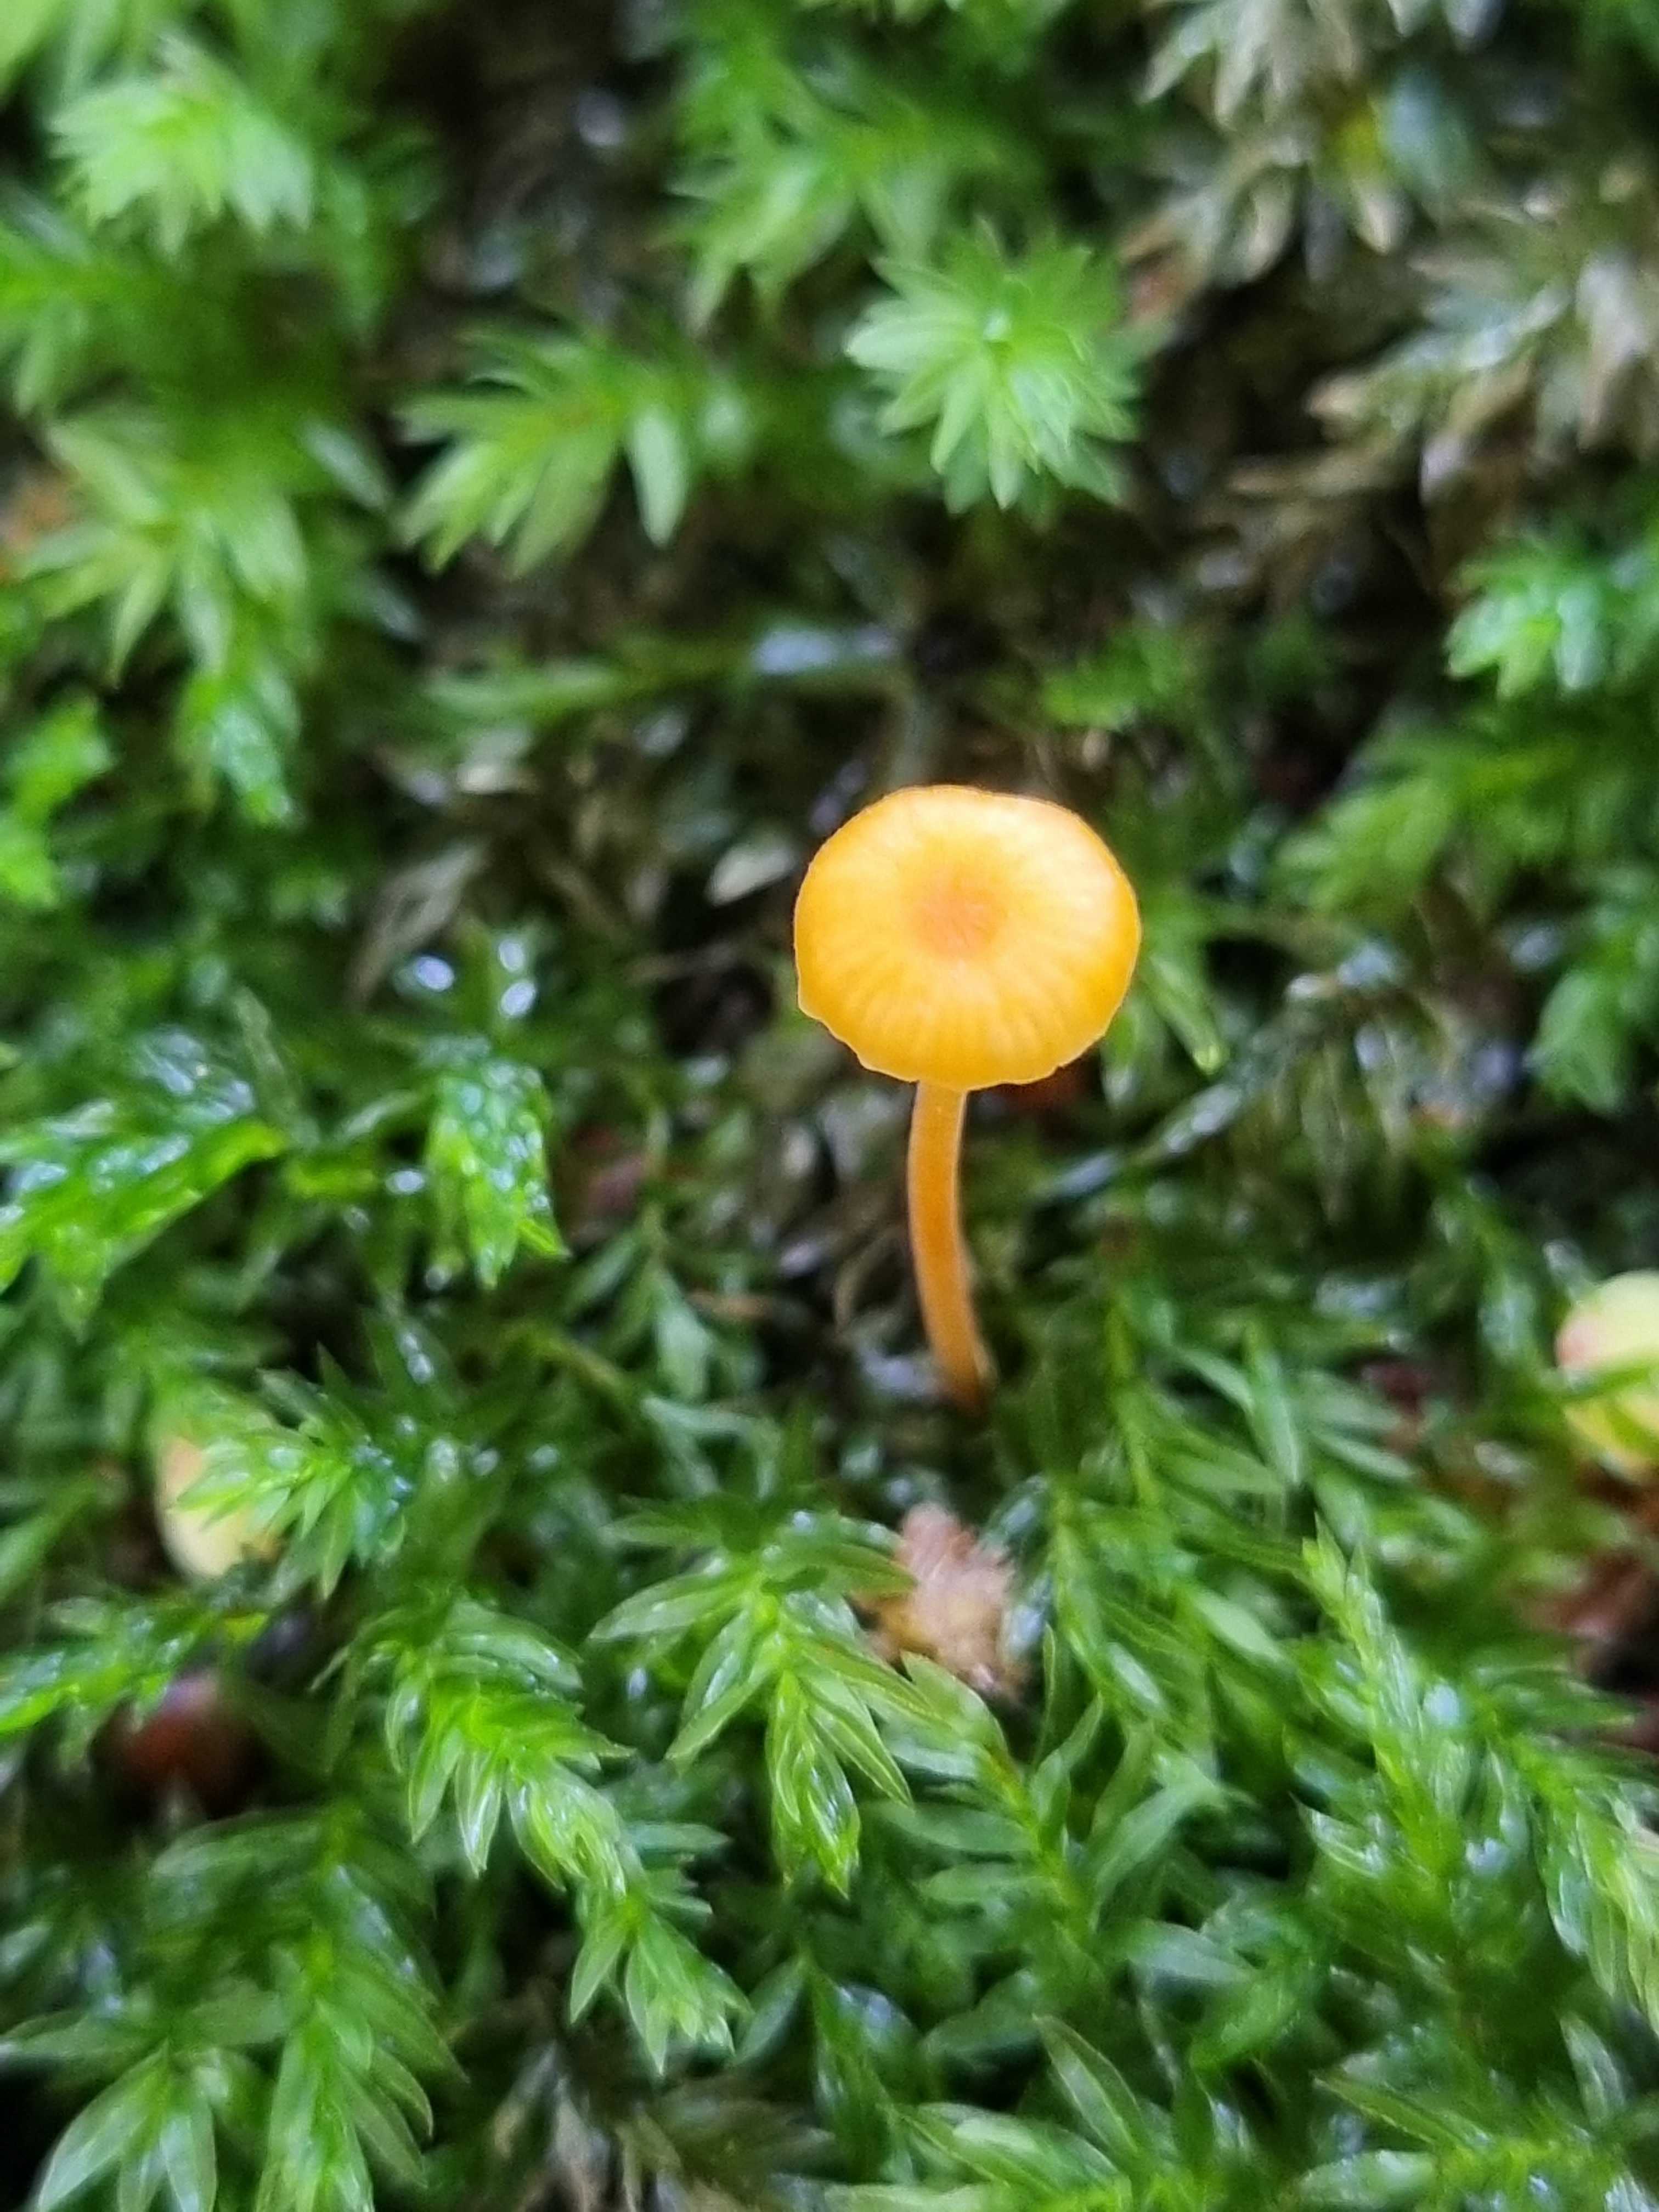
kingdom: Fungi
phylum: Basidiomycota
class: Agaricomycetes
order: Hymenochaetales
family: Rickenellaceae
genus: Rickenella
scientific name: Rickenella fibula
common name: orange mosnavlehat
